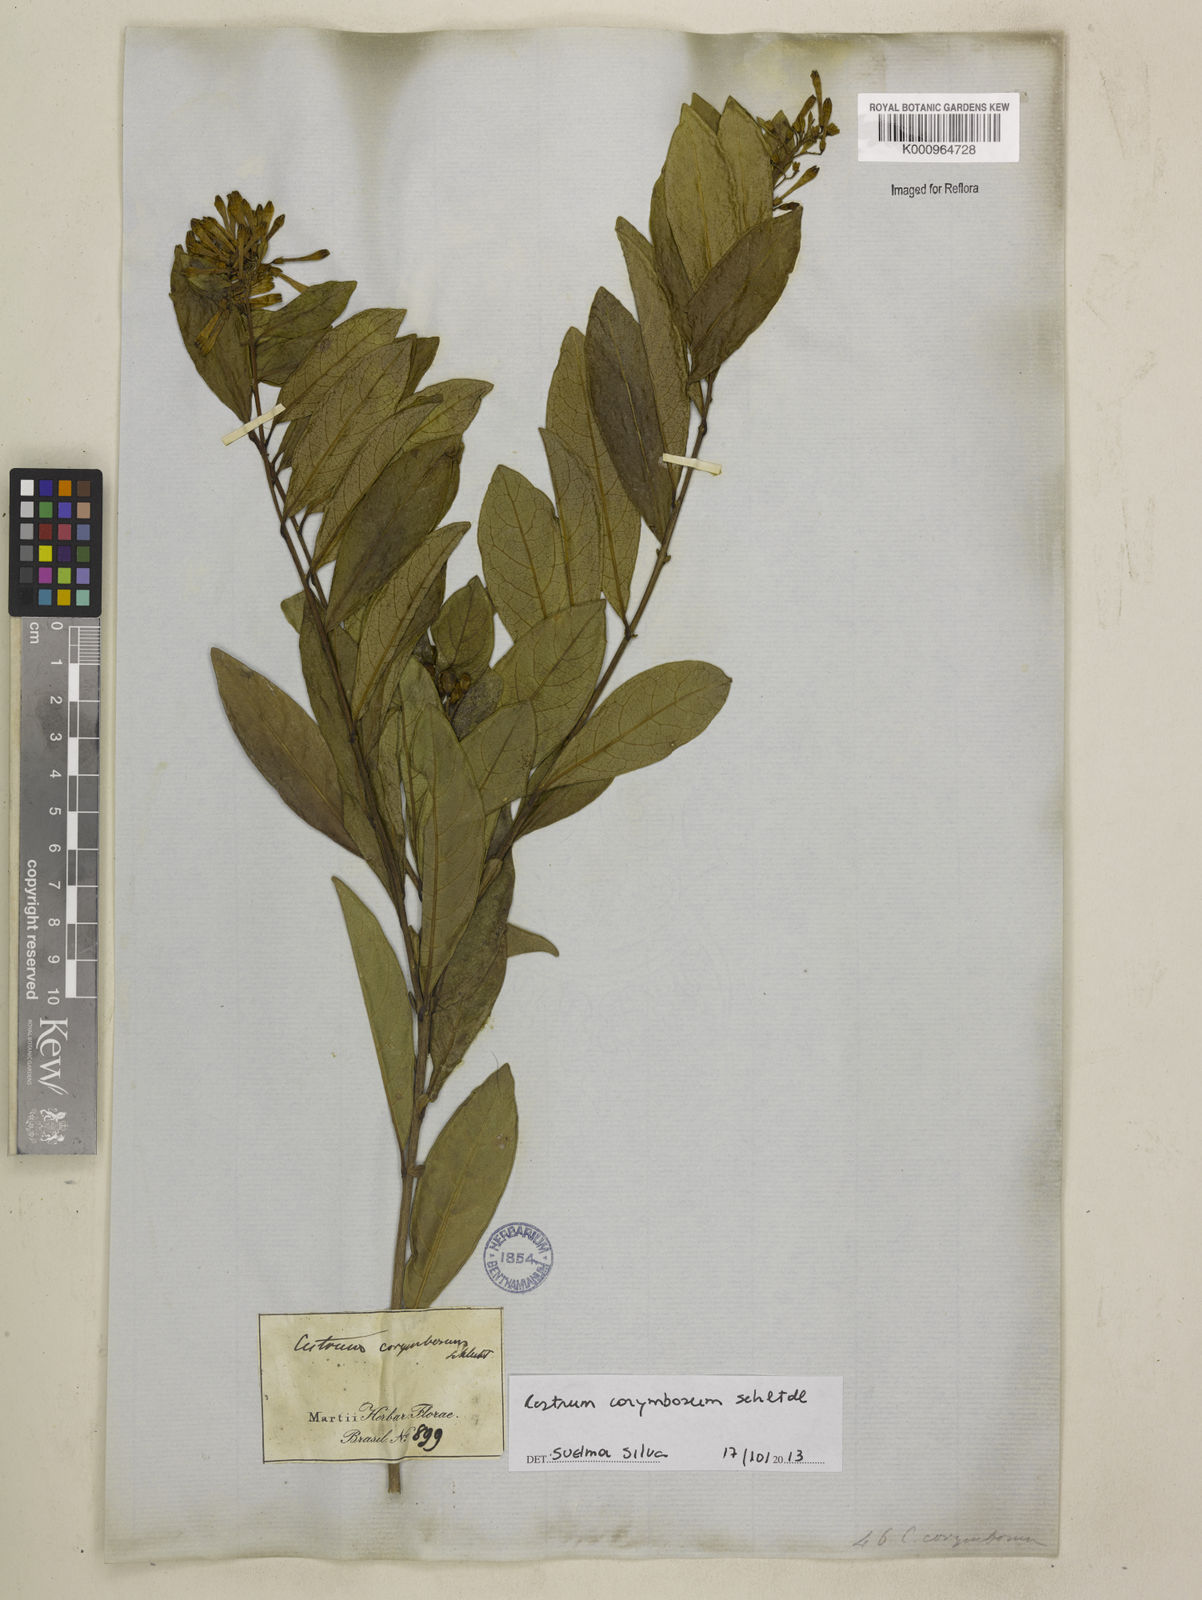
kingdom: Plantae
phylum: Tracheophyta
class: Magnoliopsida
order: Solanales
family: Solanaceae
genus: Cestrum
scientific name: Cestrum corymbosum
